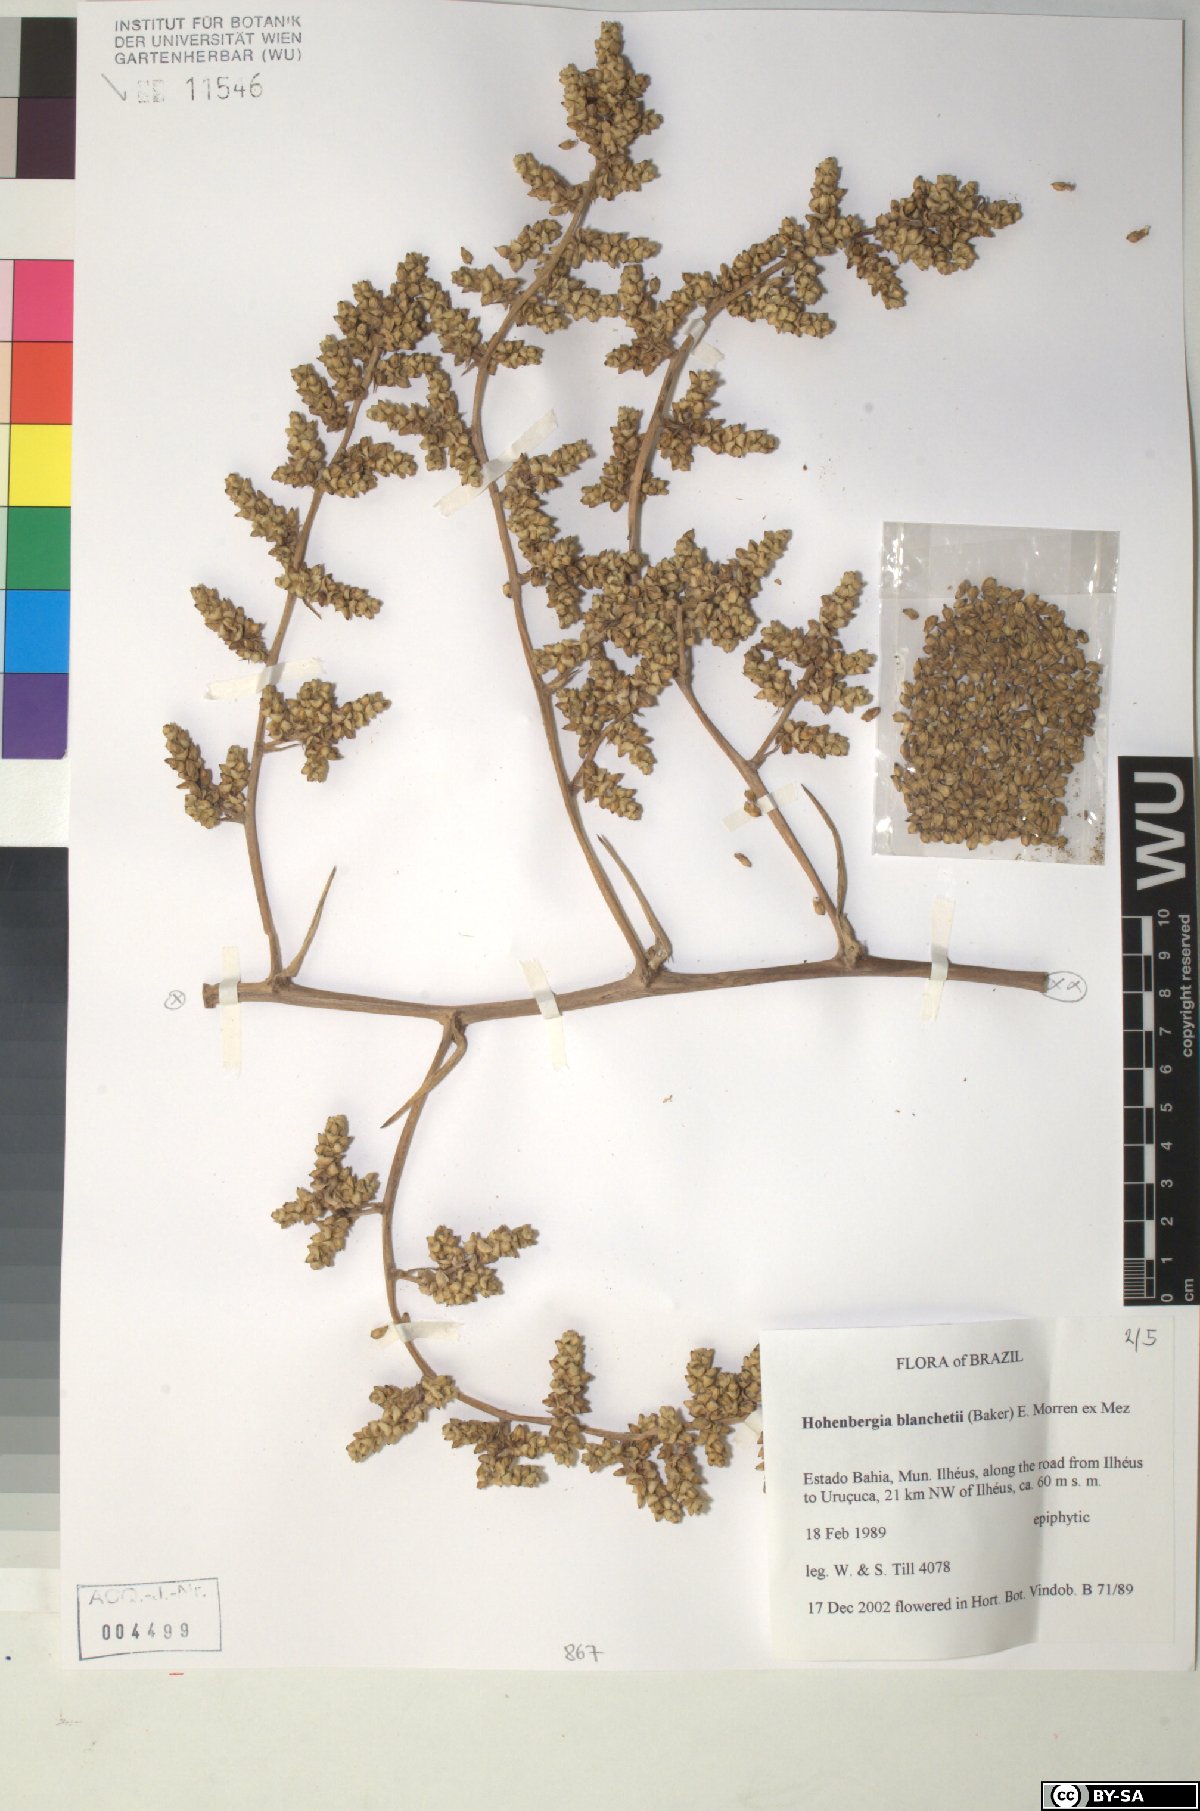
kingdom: Plantae
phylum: Tracheophyta
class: Liliopsida
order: Poales
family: Bromeliaceae
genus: Hohenbergia
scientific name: Hohenbergia blanchetii
